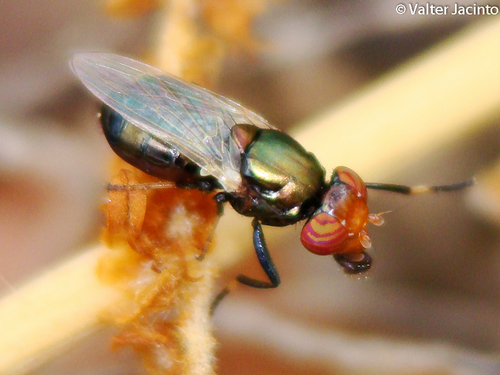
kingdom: Animalia
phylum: Arthropoda
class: Insecta
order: Diptera
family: Ulidiidae
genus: Physiphora
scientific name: Physiphora alceae
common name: Picture-winged fly
